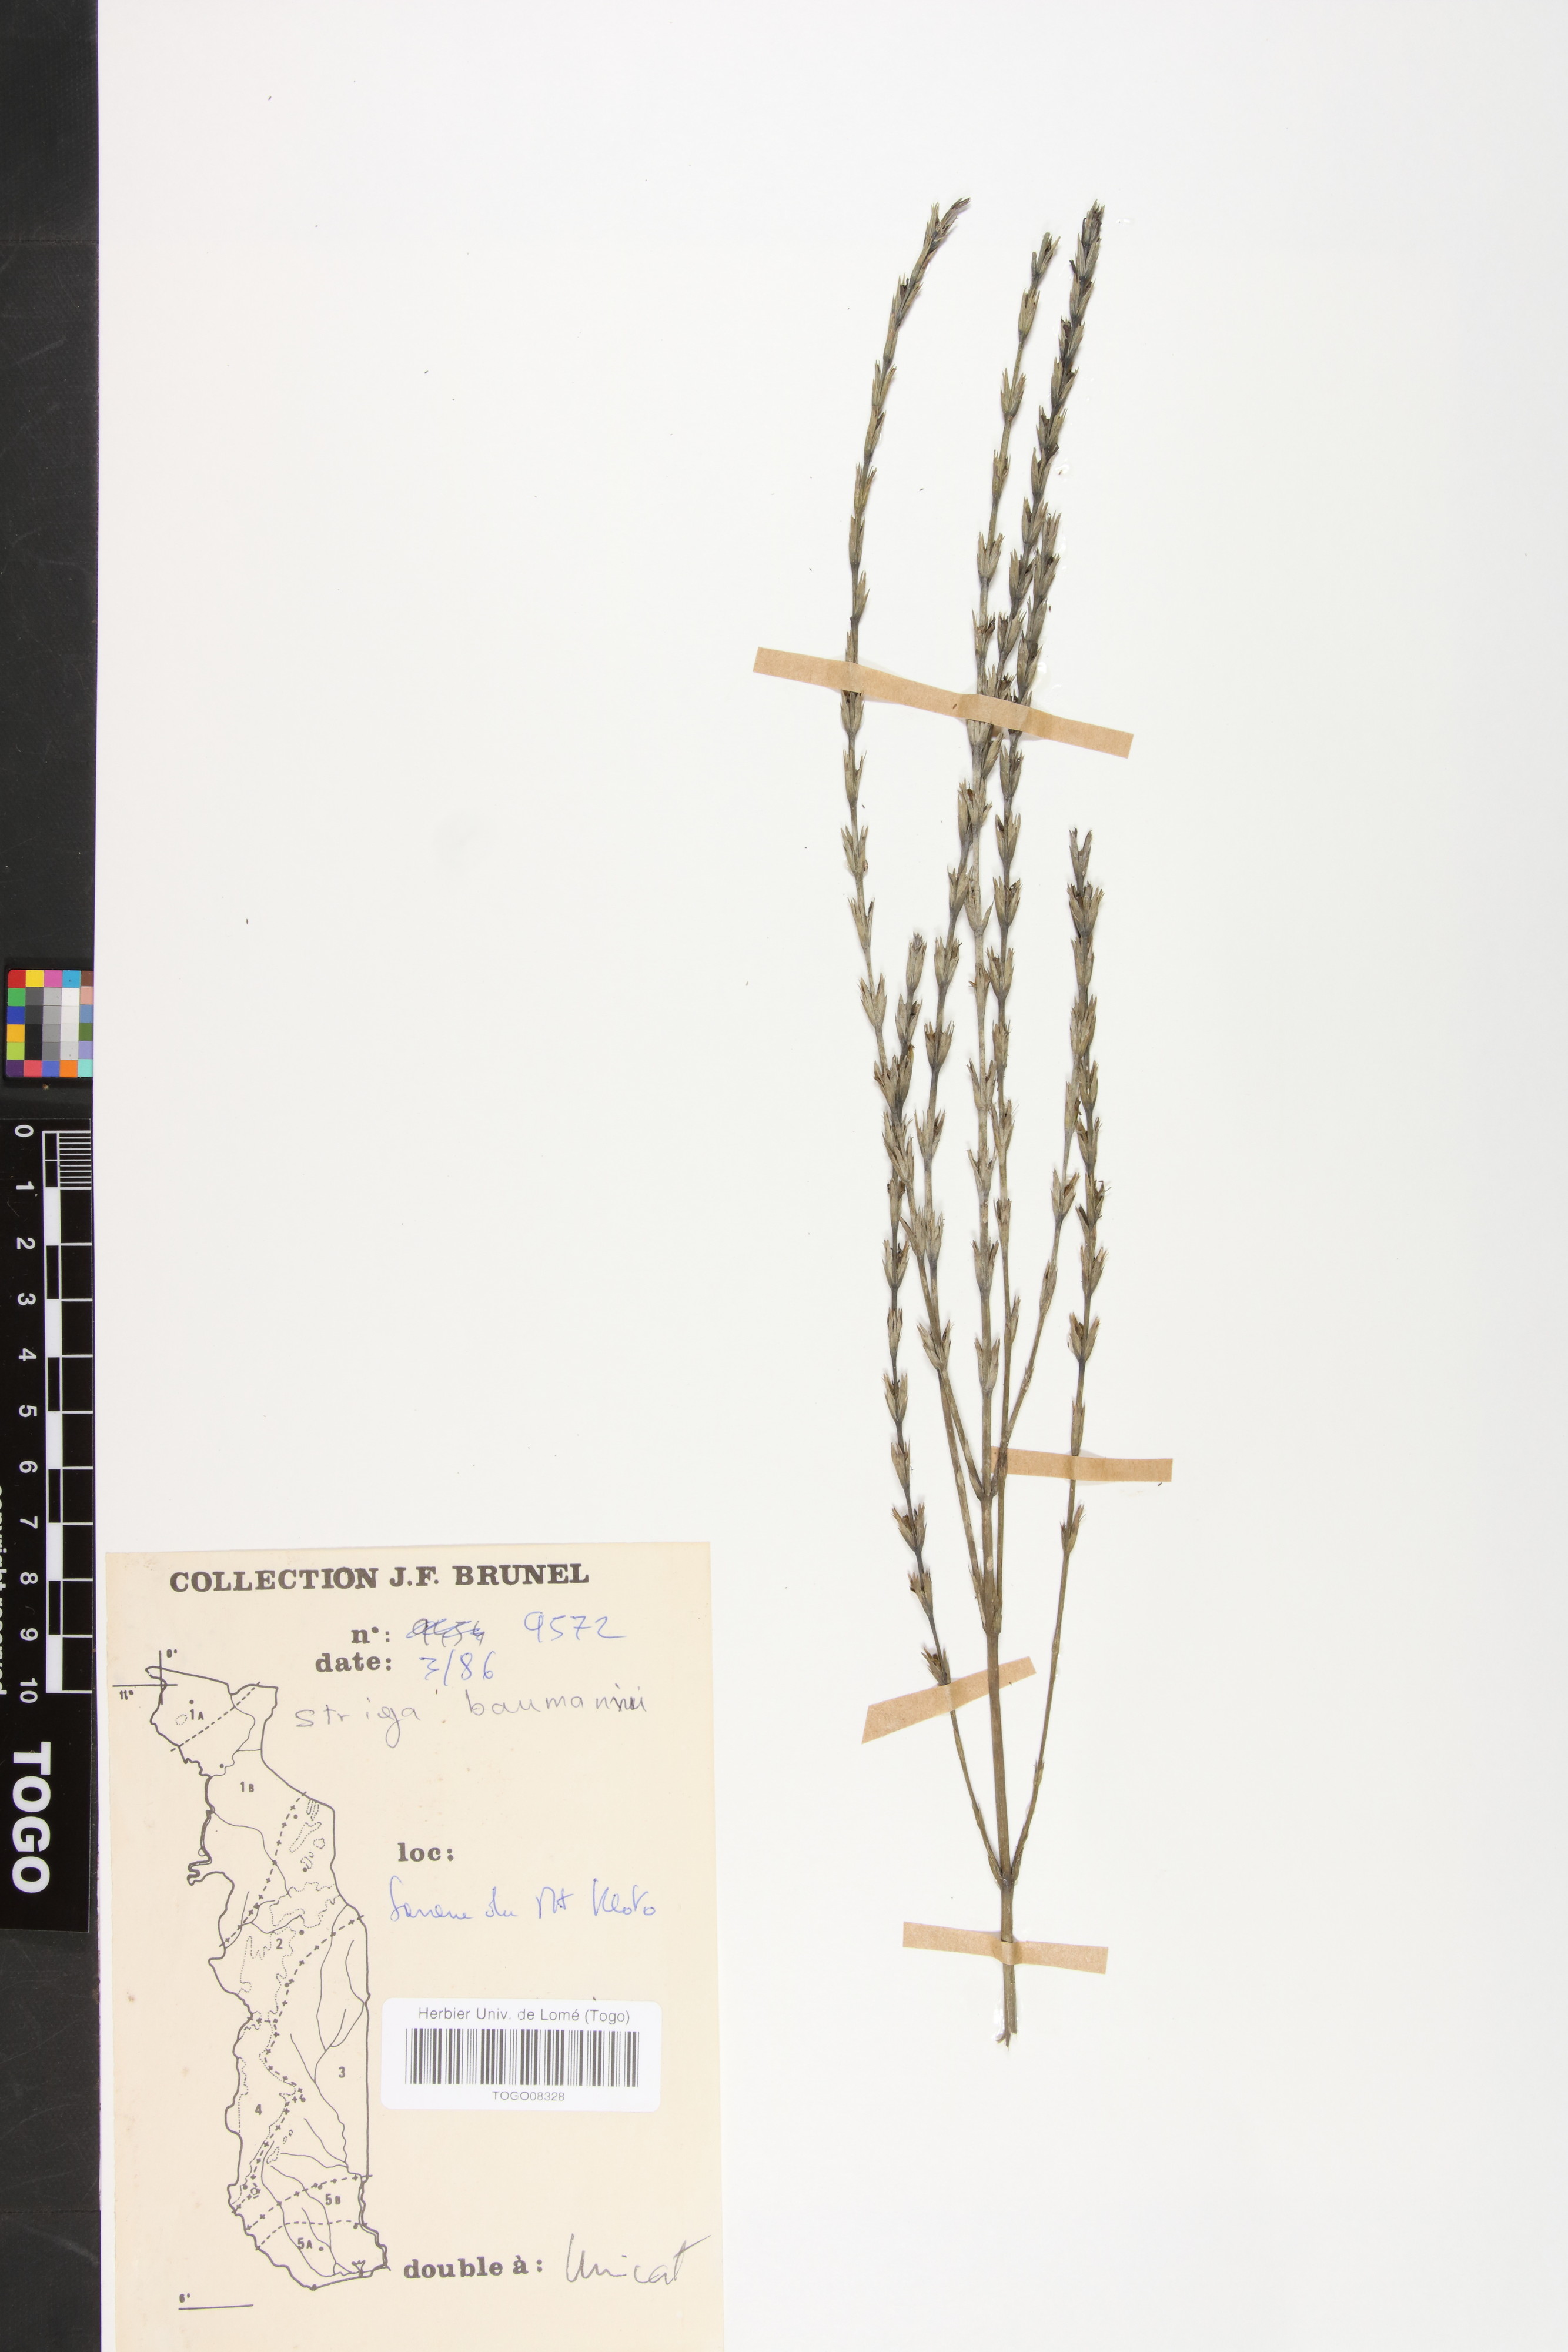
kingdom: Plantae
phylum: Tracheophyta
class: Magnoliopsida
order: Lamiales
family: Orobanchaceae
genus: Striga
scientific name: Striga baumannii
